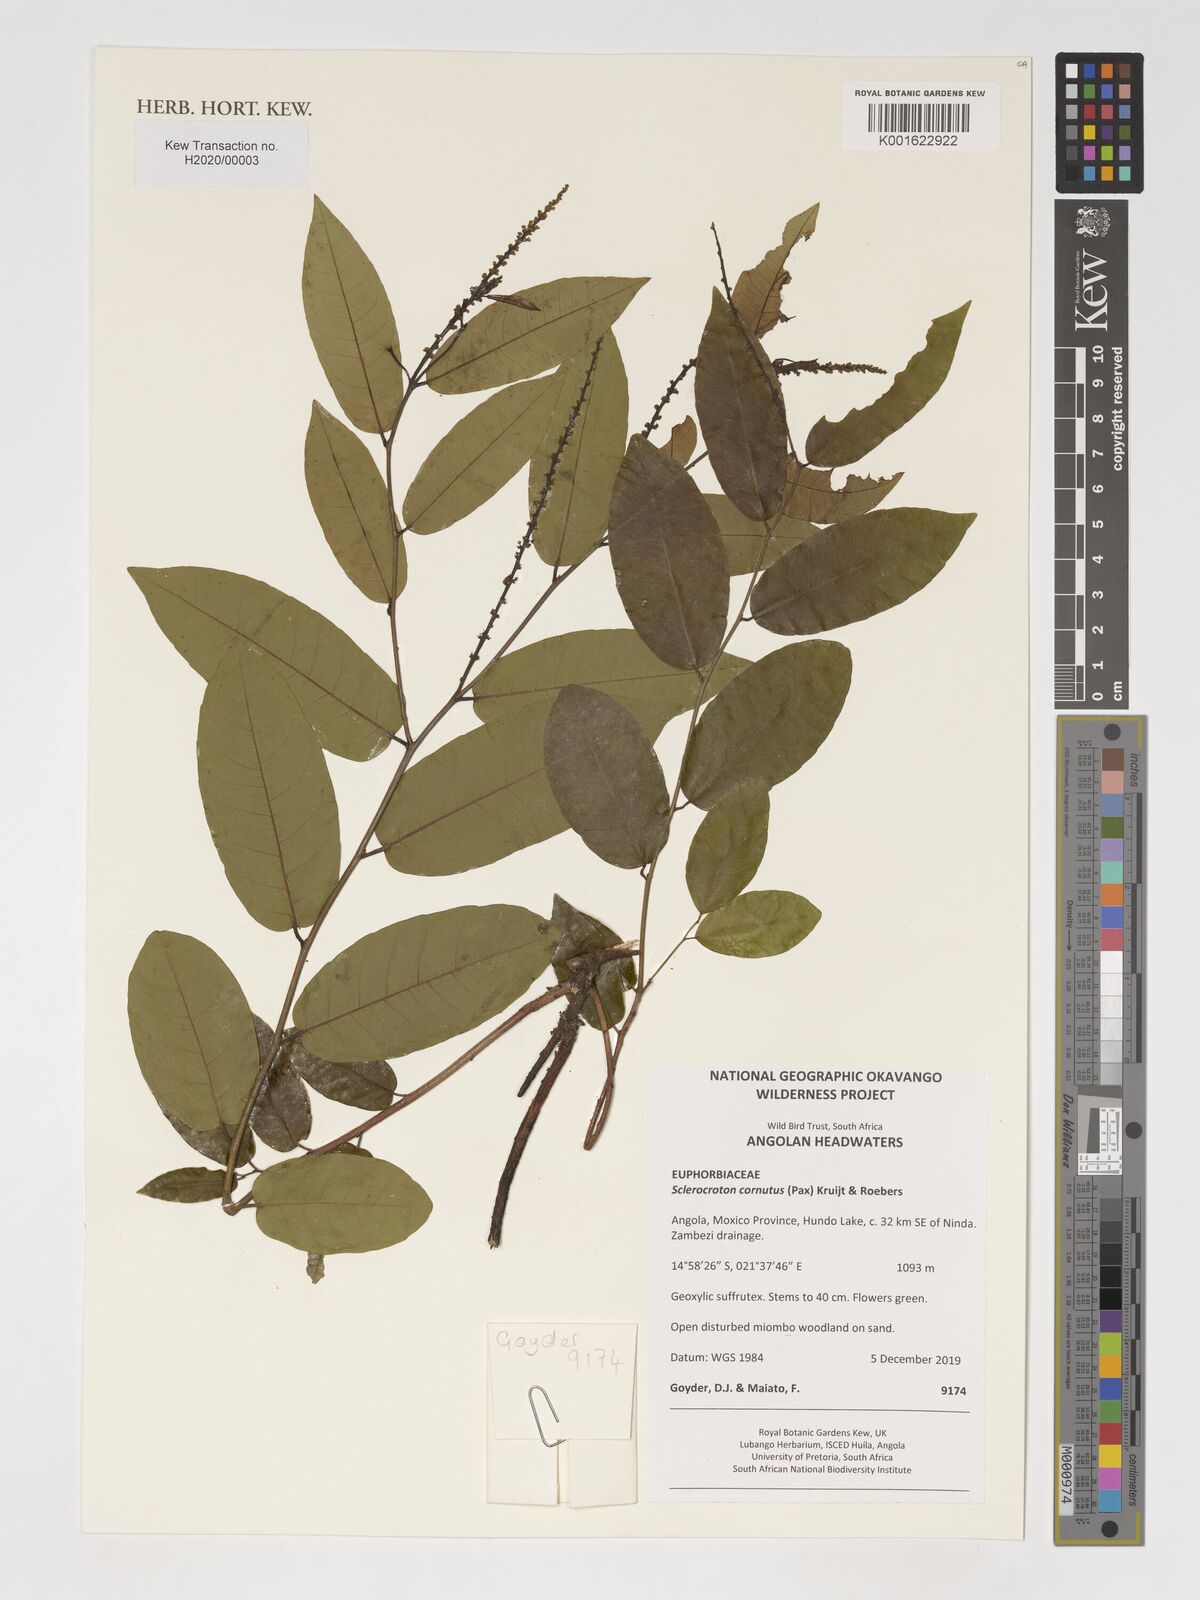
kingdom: Plantae
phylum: Tracheophyta
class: Magnoliopsida
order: Malpighiales
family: Euphorbiaceae
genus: Sclerocroton
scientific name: Sclerocroton cornutus
